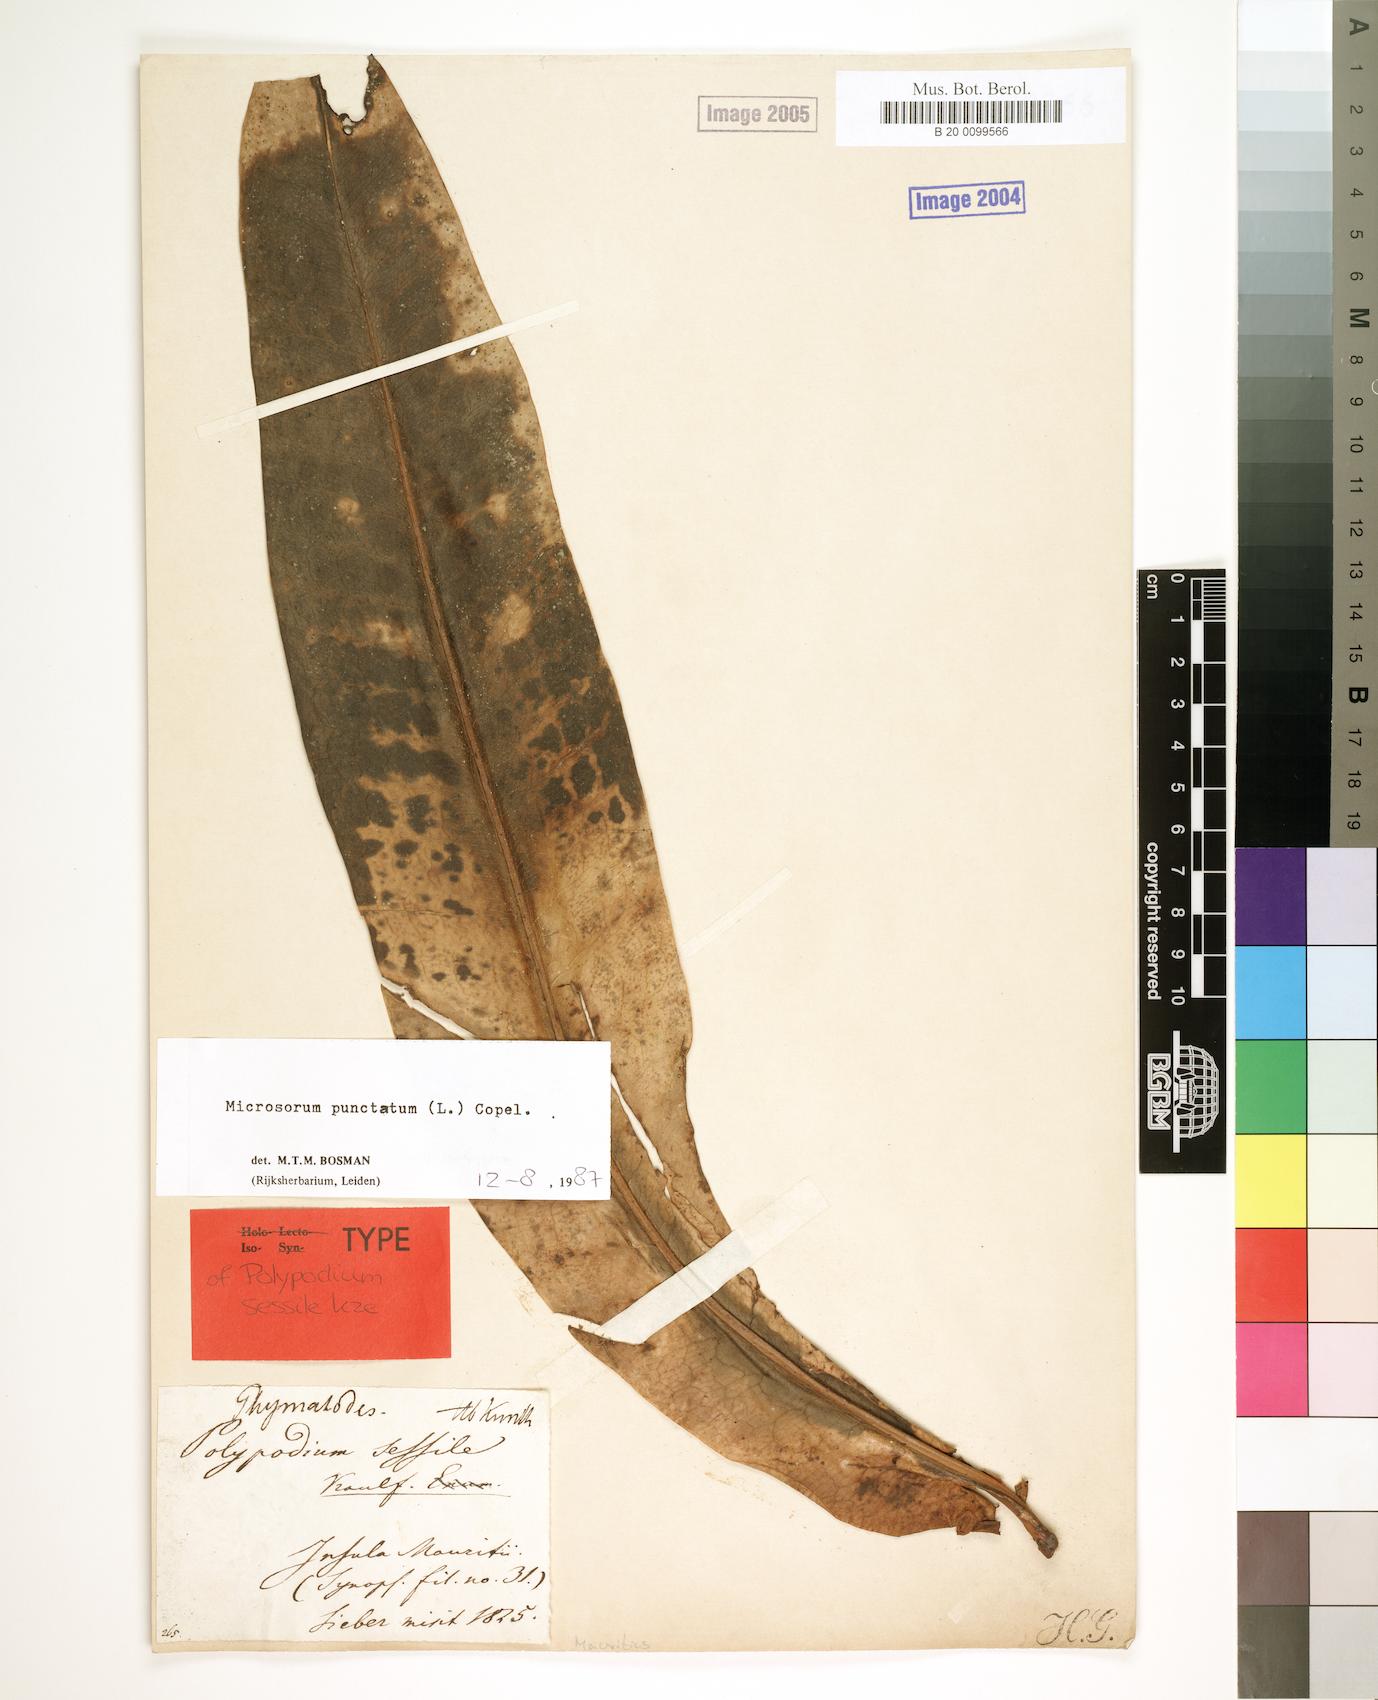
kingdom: Plantae
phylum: Tracheophyta
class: Polypodiopsida
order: Polypodiales
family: Polypodiaceae
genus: Microsorum
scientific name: Microsorum punctatum
